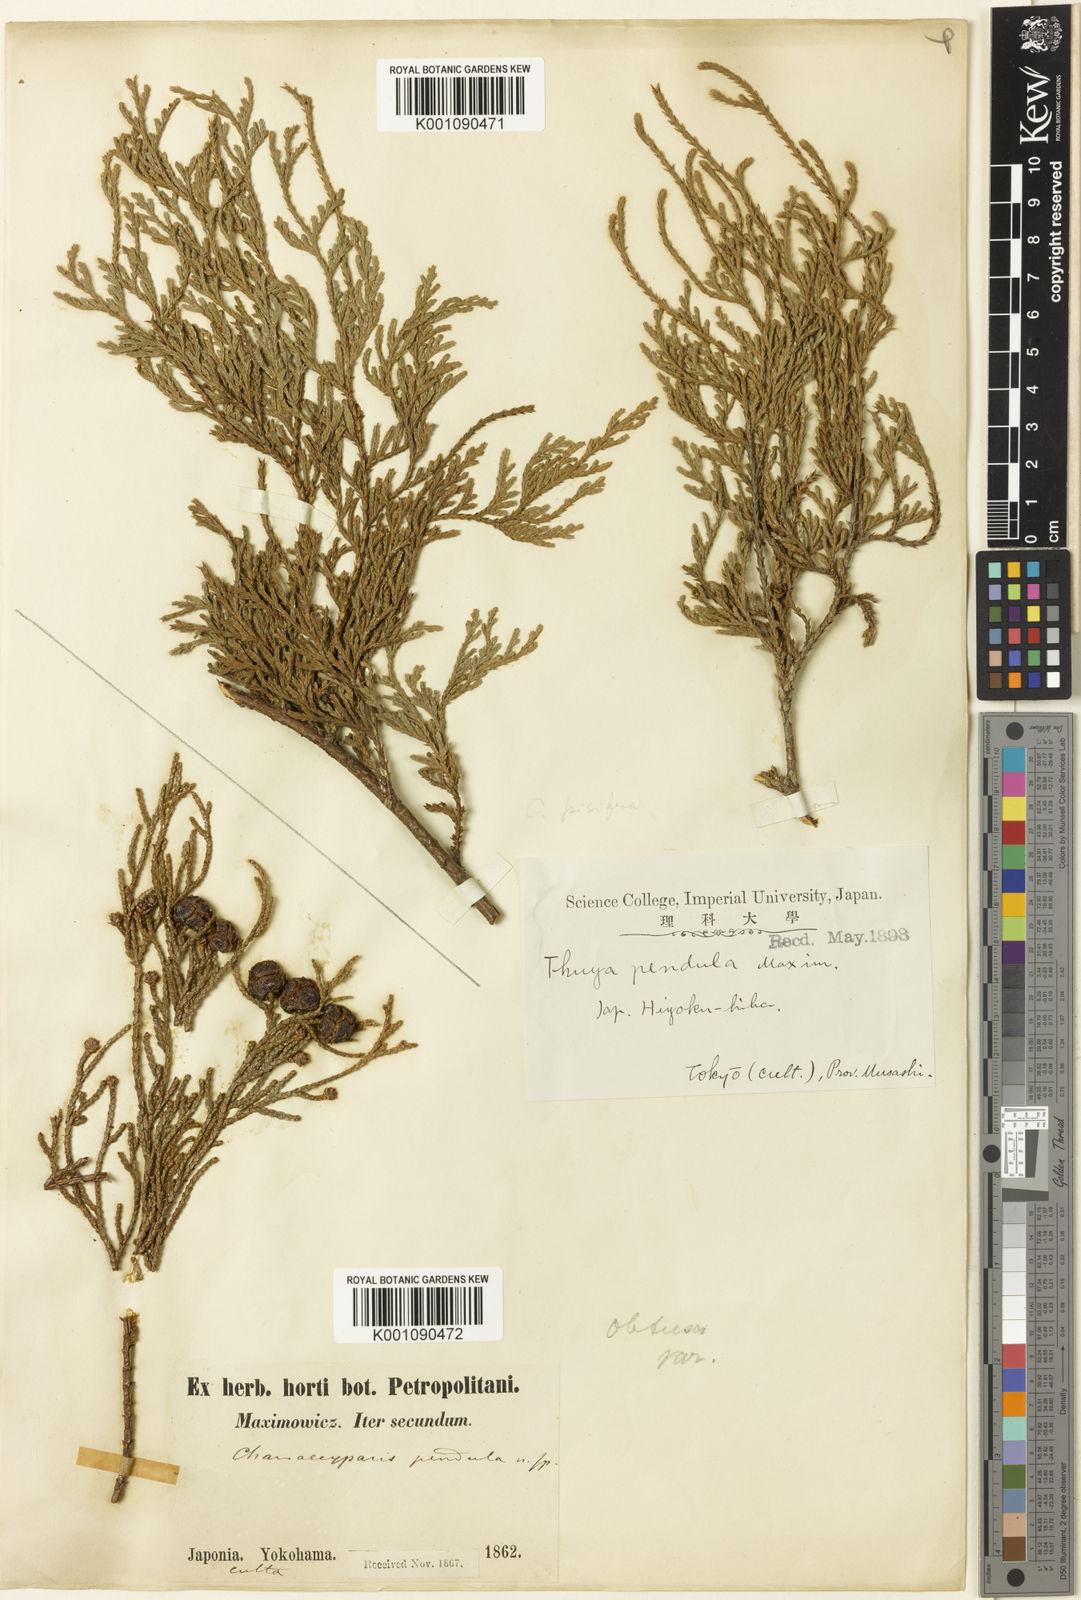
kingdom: Plantae
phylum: Tracheophyta
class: Pinopsida
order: Pinales
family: Cupressaceae
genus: Chamaecyparis
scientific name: Chamaecyparis obtusa
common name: Hinoki false cypress
